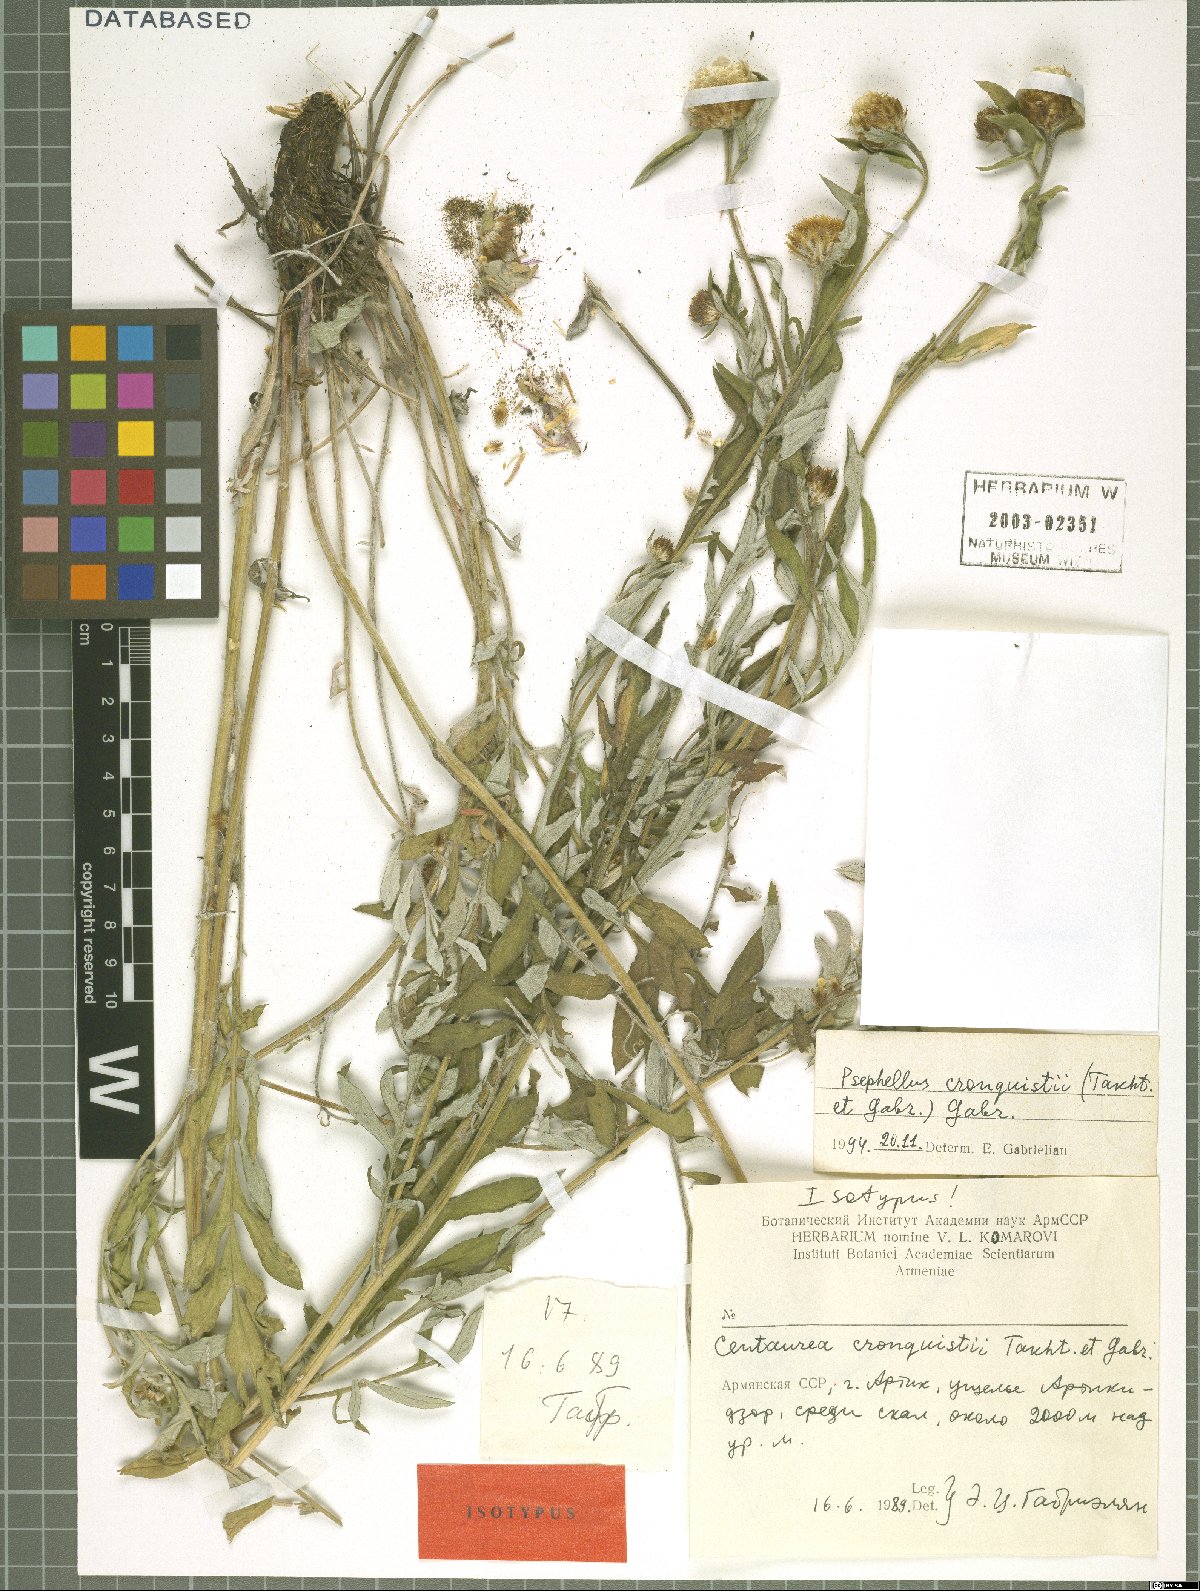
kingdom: Plantae
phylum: Tracheophyta
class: Magnoliopsida
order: Asterales
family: Asteraceae
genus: Psephellus
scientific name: Psephellus cronquistii
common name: Cronquists's cornflower
